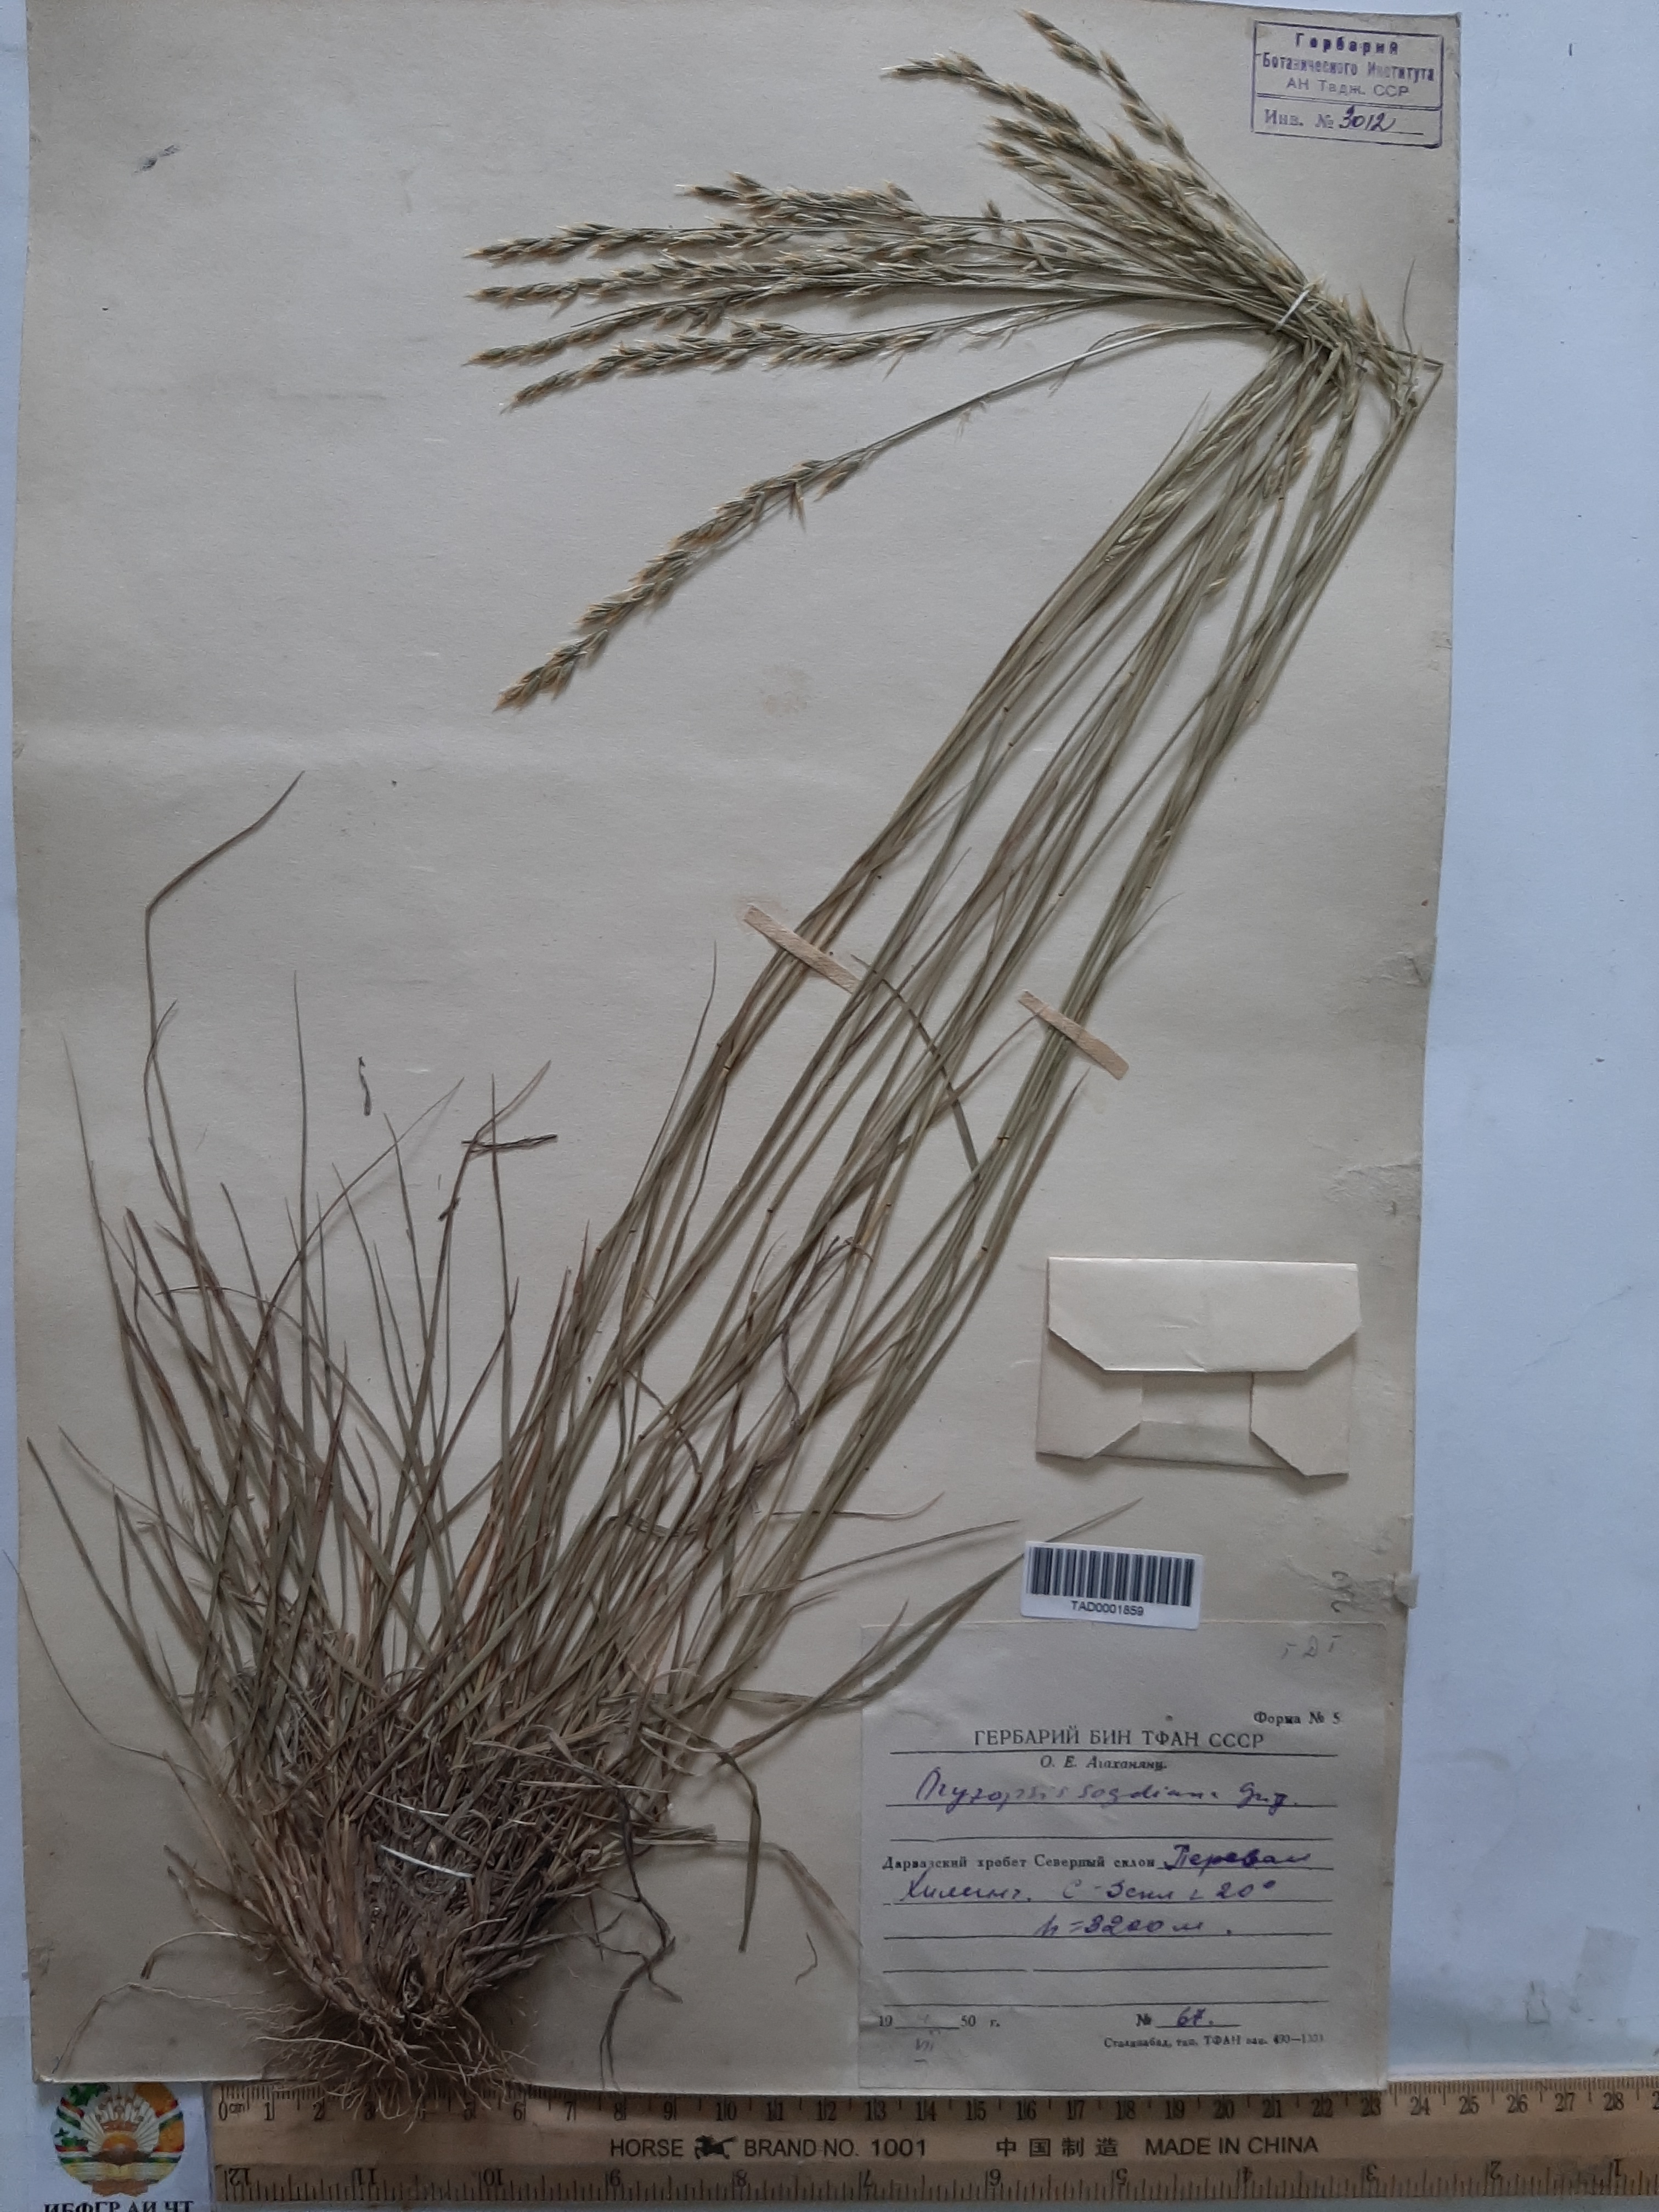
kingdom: Plantae
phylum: Tracheophyta
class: Liliopsida
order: Poales
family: Poaceae
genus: Piptatherum
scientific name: Piptatherum sogdianum
